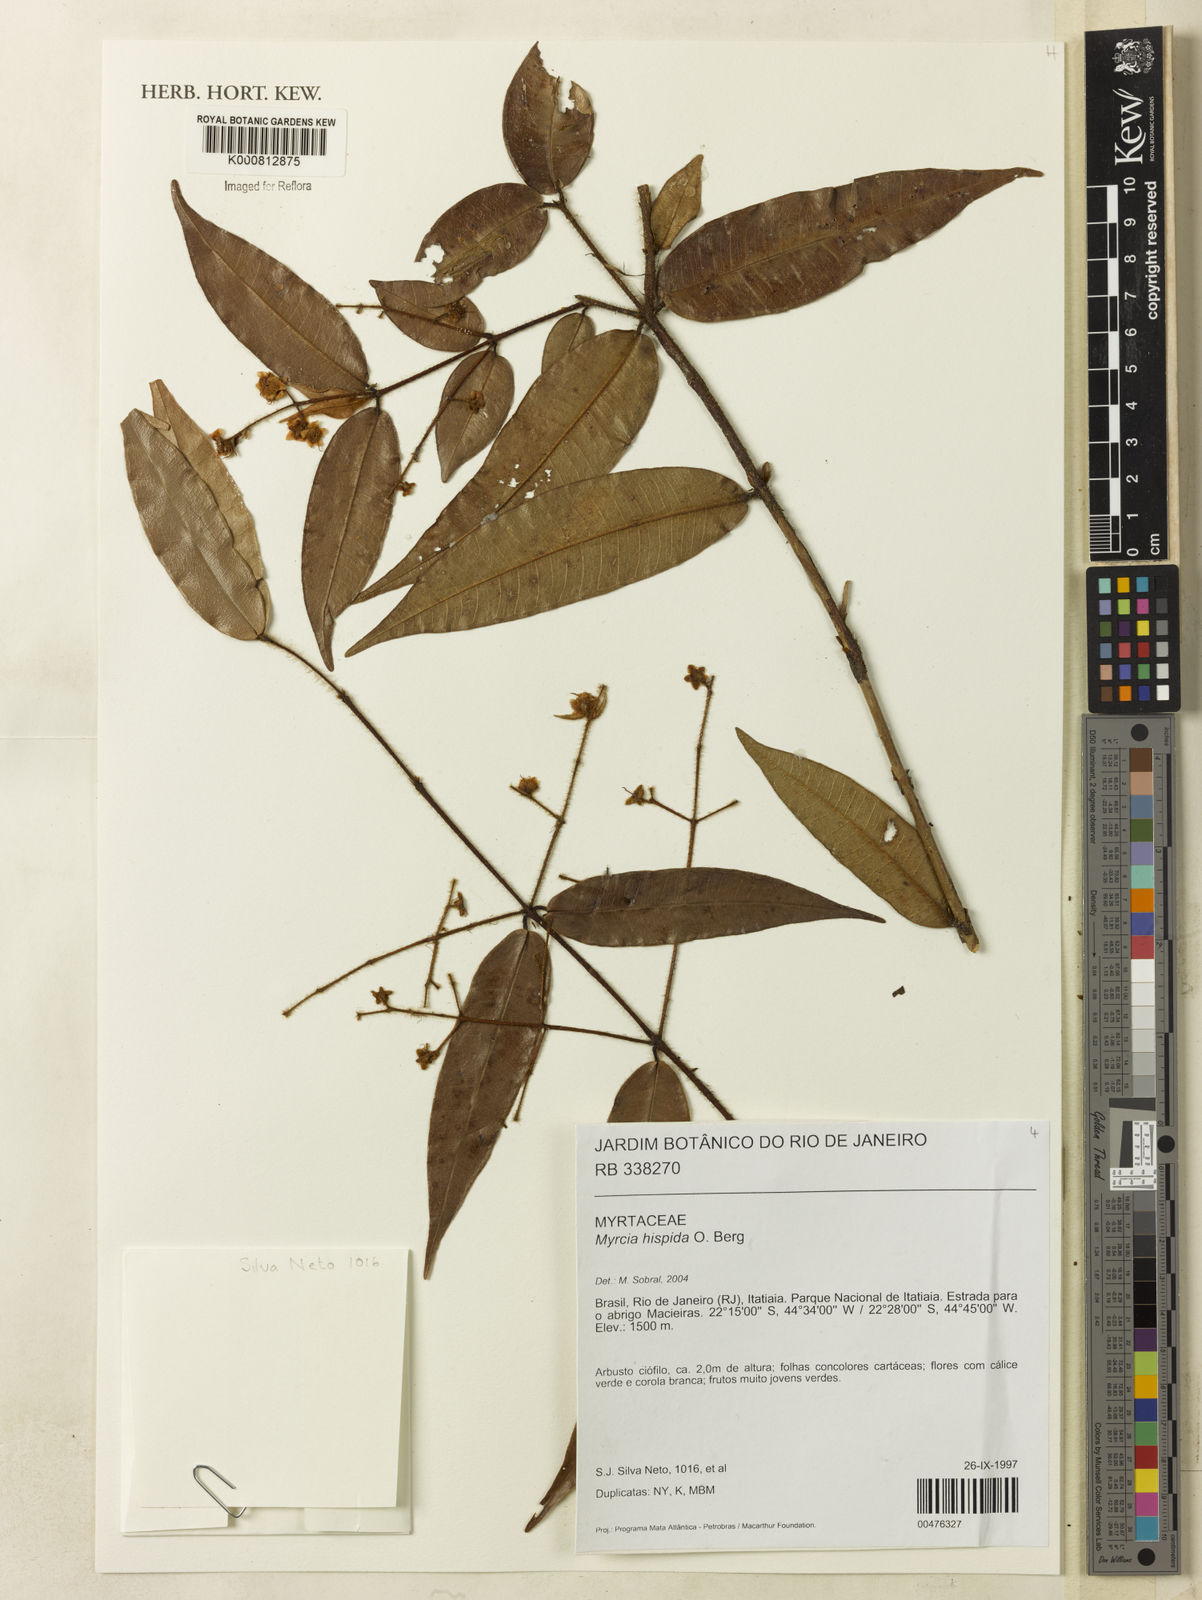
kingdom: Plantae
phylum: Tracheophyta
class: Magnoliopsida
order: Myrtales
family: Myrtaceae
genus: Myrcia
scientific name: Myrcia eriopus
